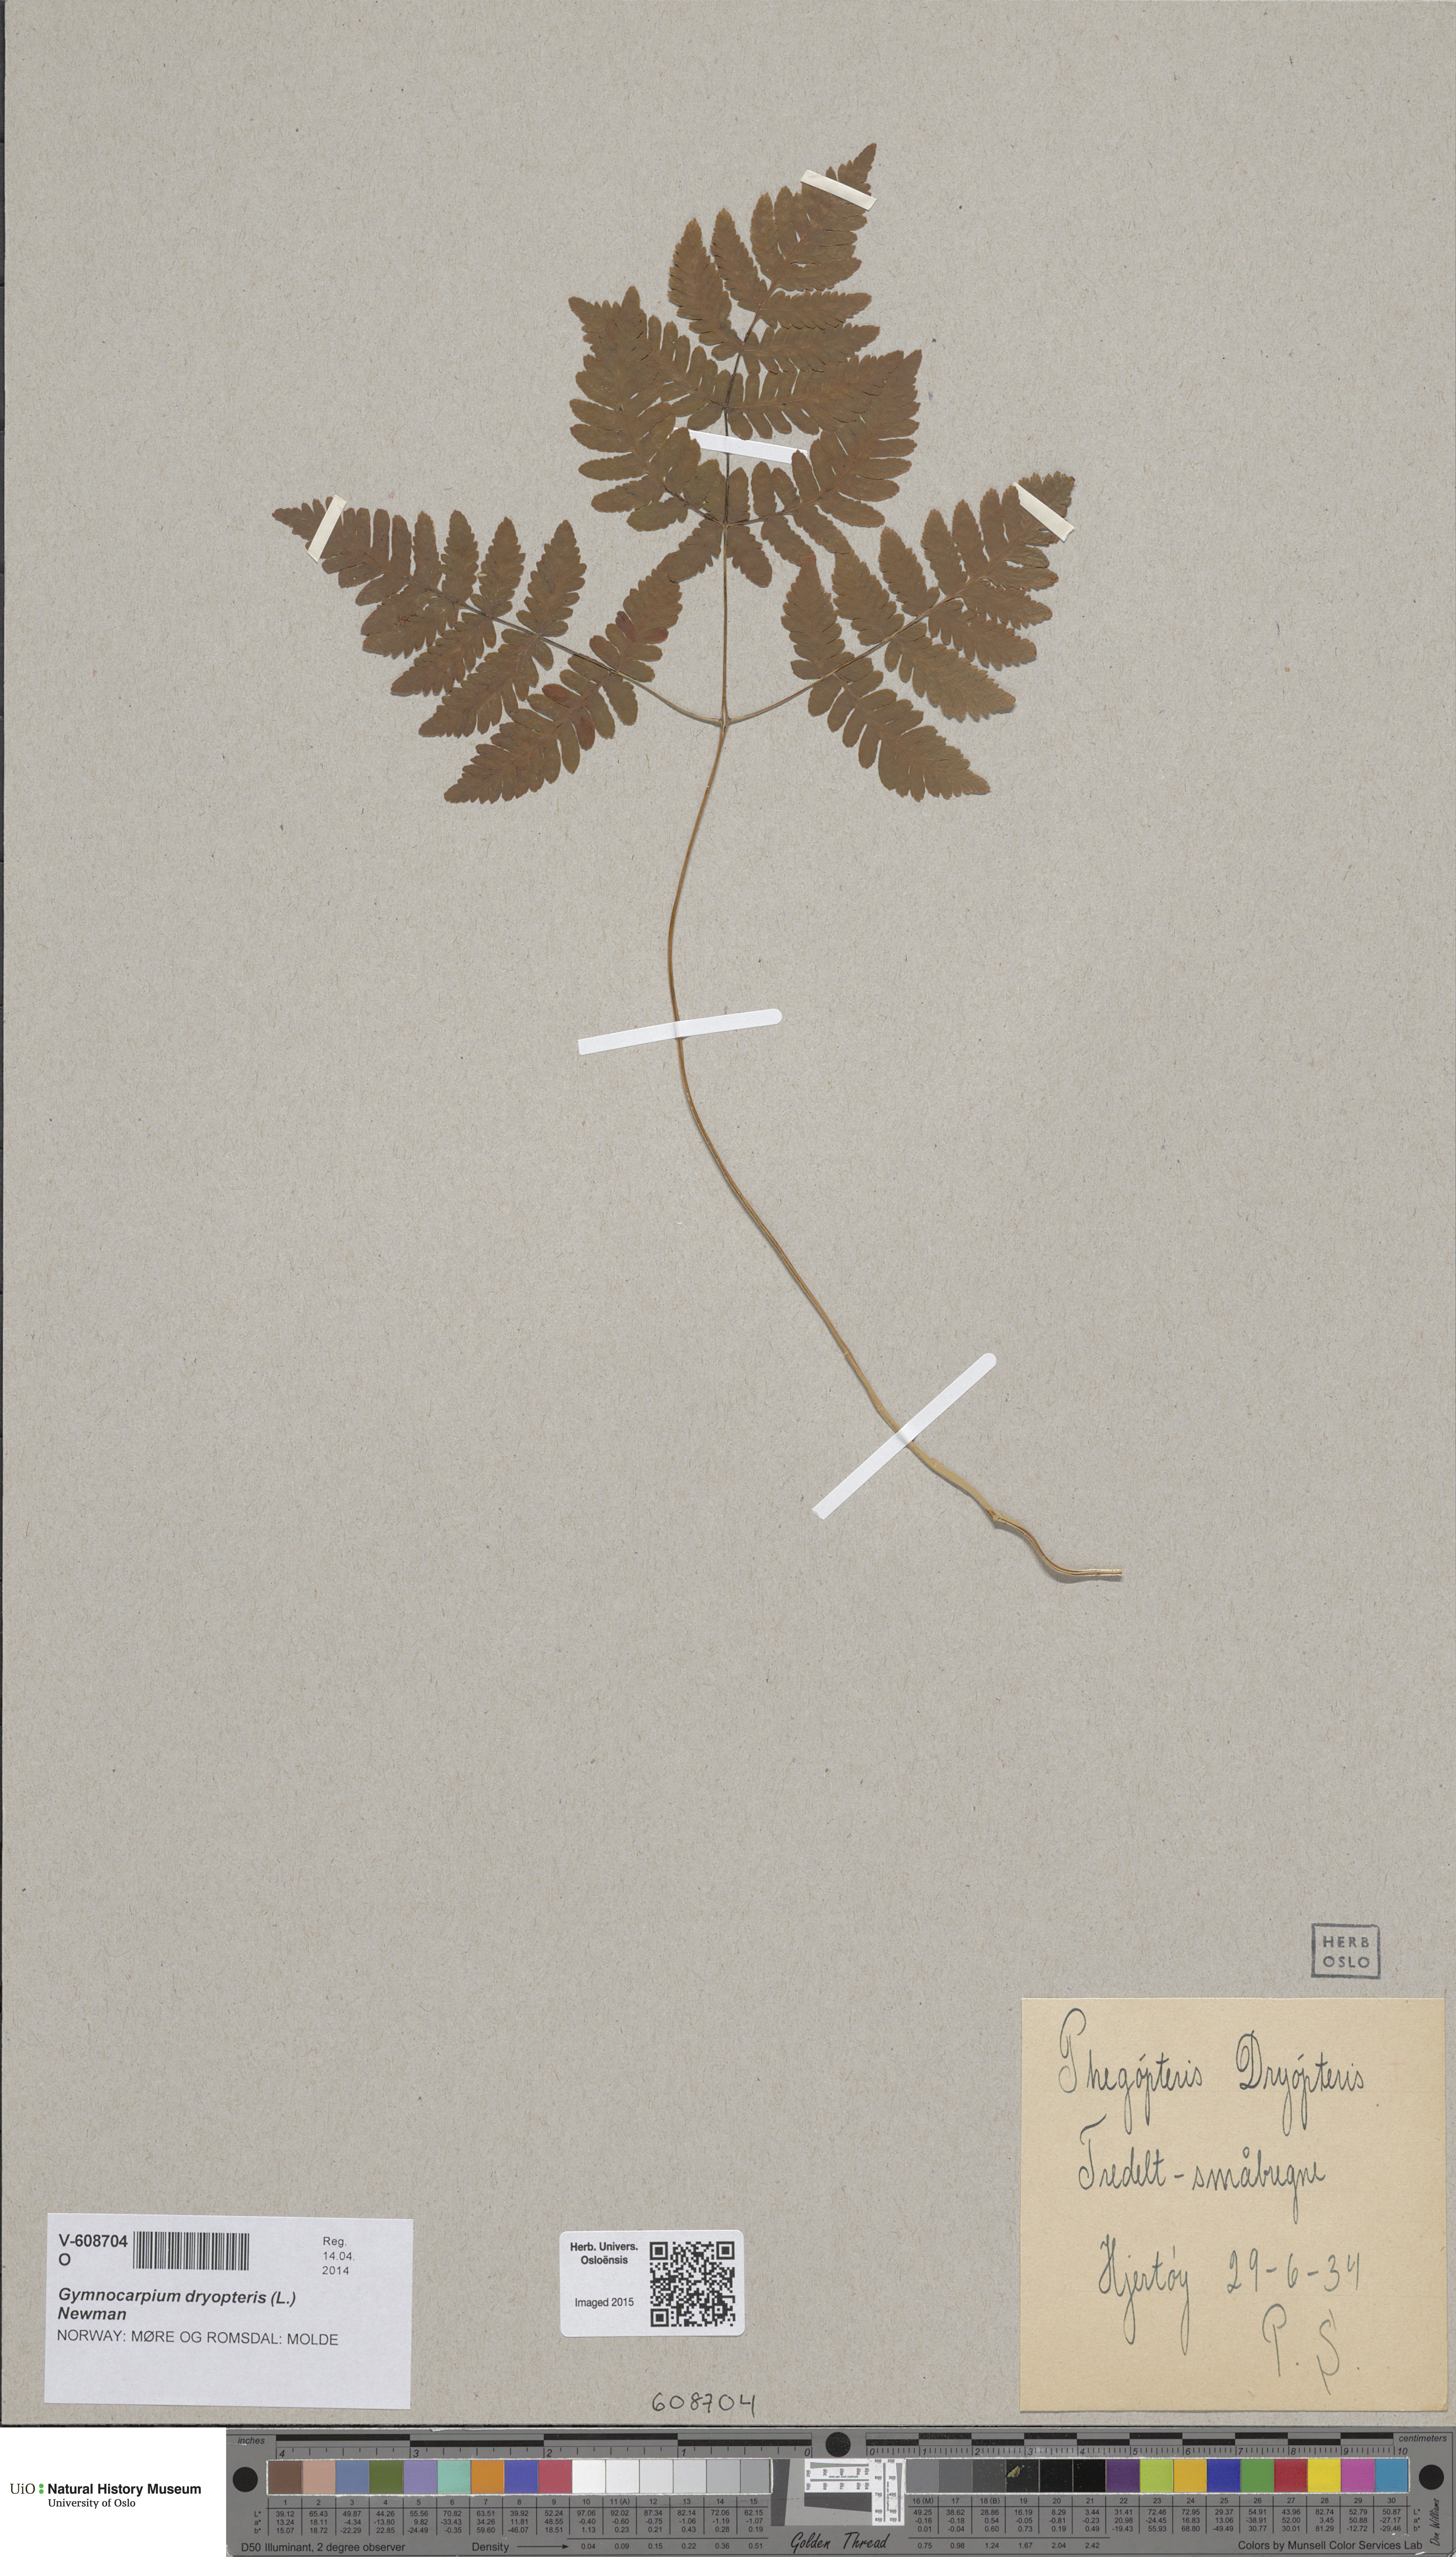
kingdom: Plantae
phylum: Tracheophyta
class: Polypodiopsida
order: Polypodiales
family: Cystopteridaceae
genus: Gymnocarpium
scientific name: Gymnocarpium dryopteris
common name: Oak fern
